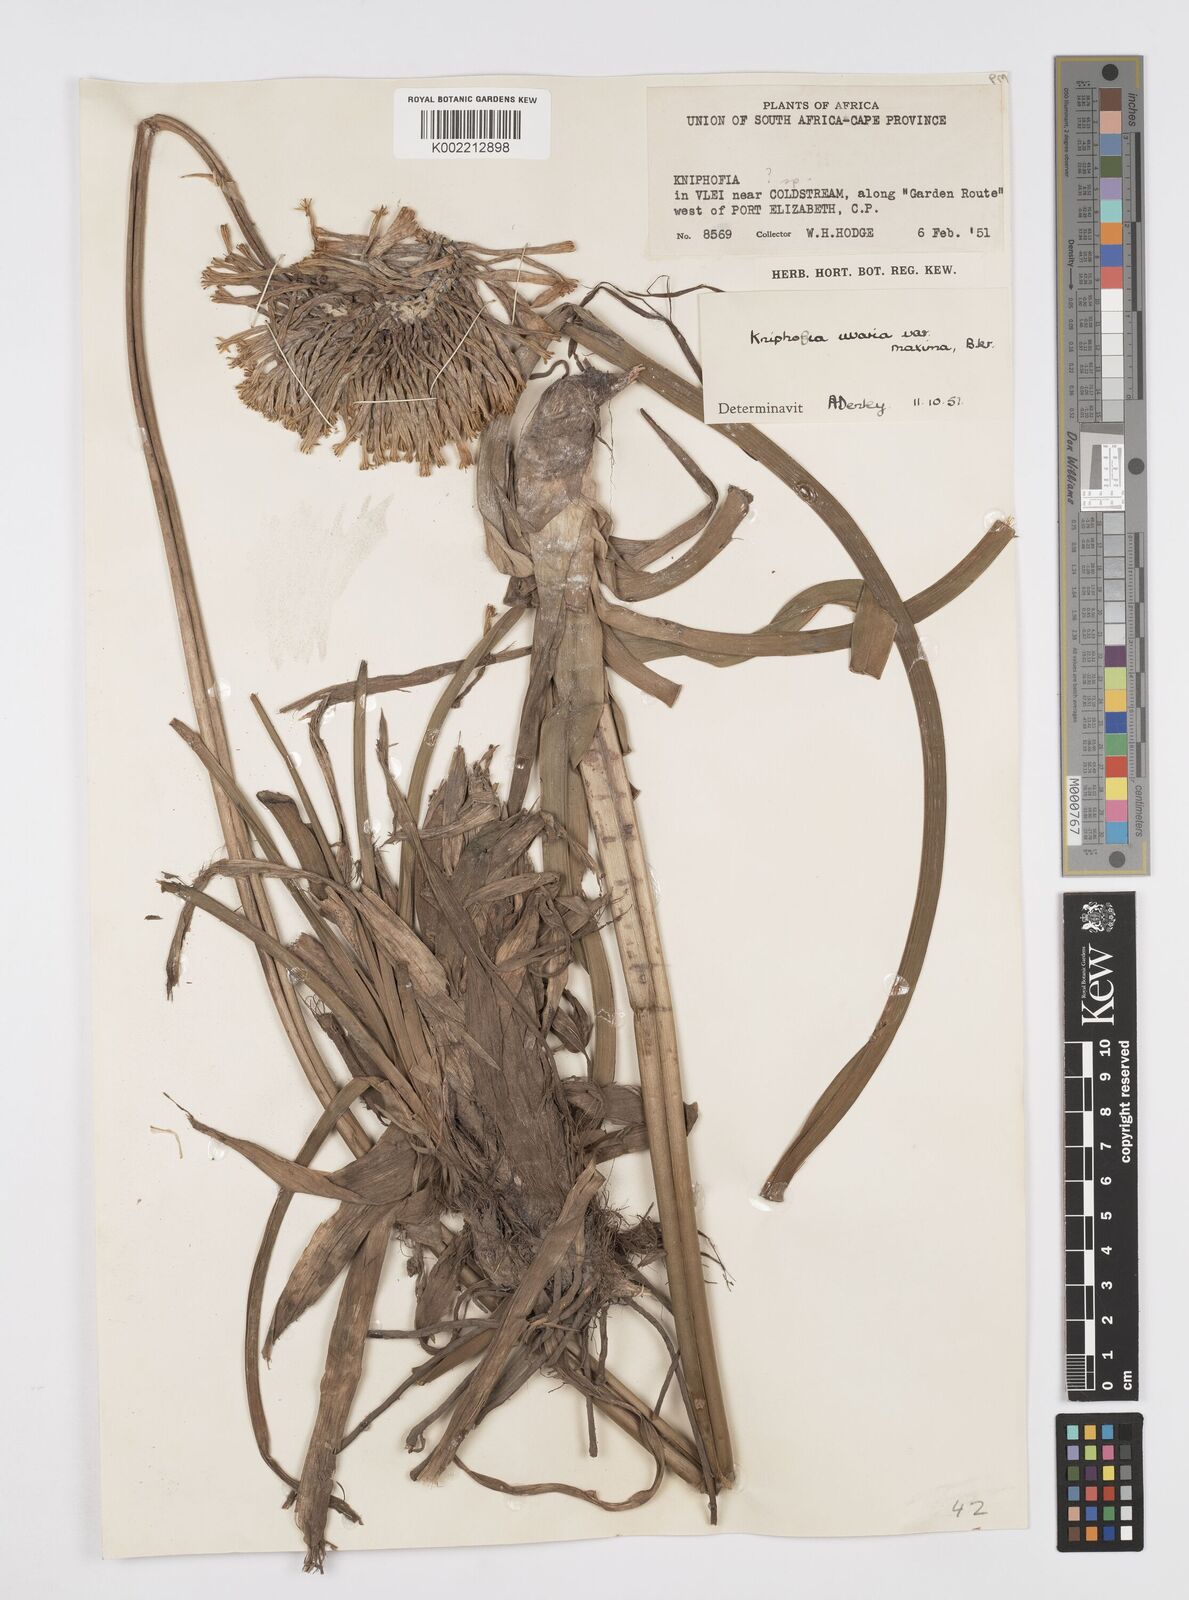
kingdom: Plantae
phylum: Tracheophyta
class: Liliopsida
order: Asparagales
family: Asphodelaceae
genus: Kniphofia
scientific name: Kniphofia uvaria
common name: Red-hot-poker
